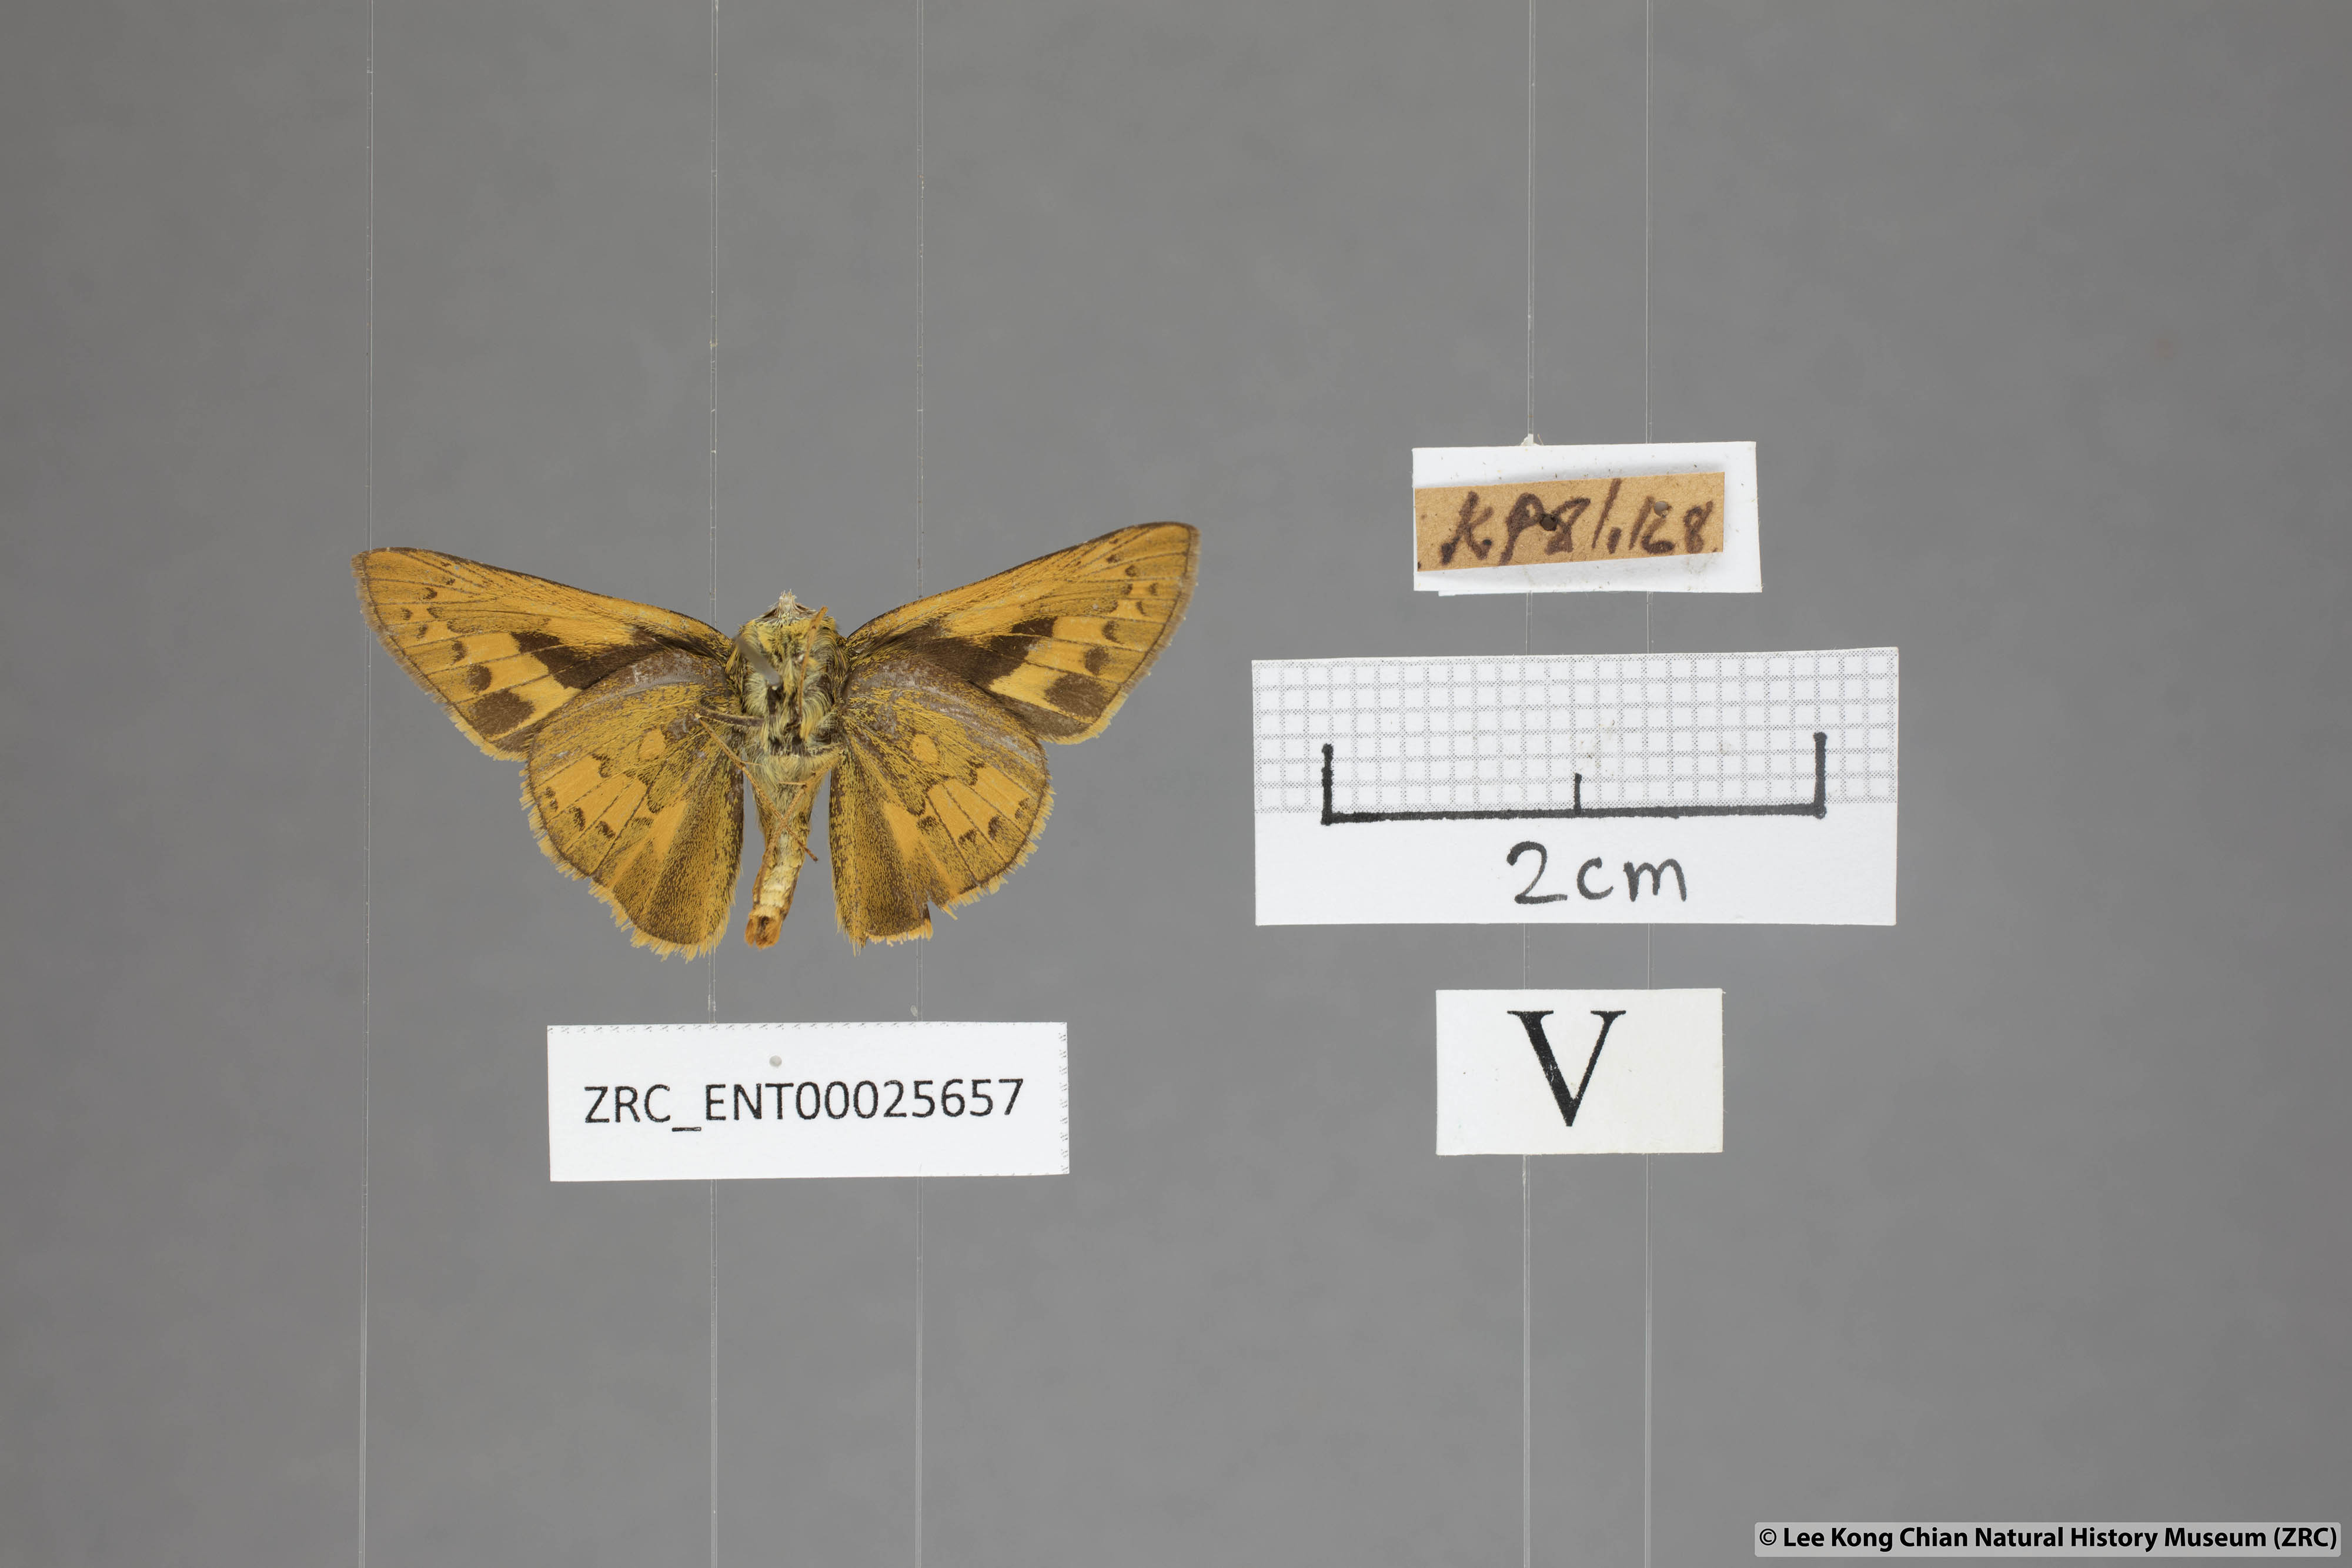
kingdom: Animalia
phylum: Arthropoda
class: Insecta
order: Lepidoptera
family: Hesperiidae
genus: Telicota
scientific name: Telicota colon
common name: Pale palm dart
